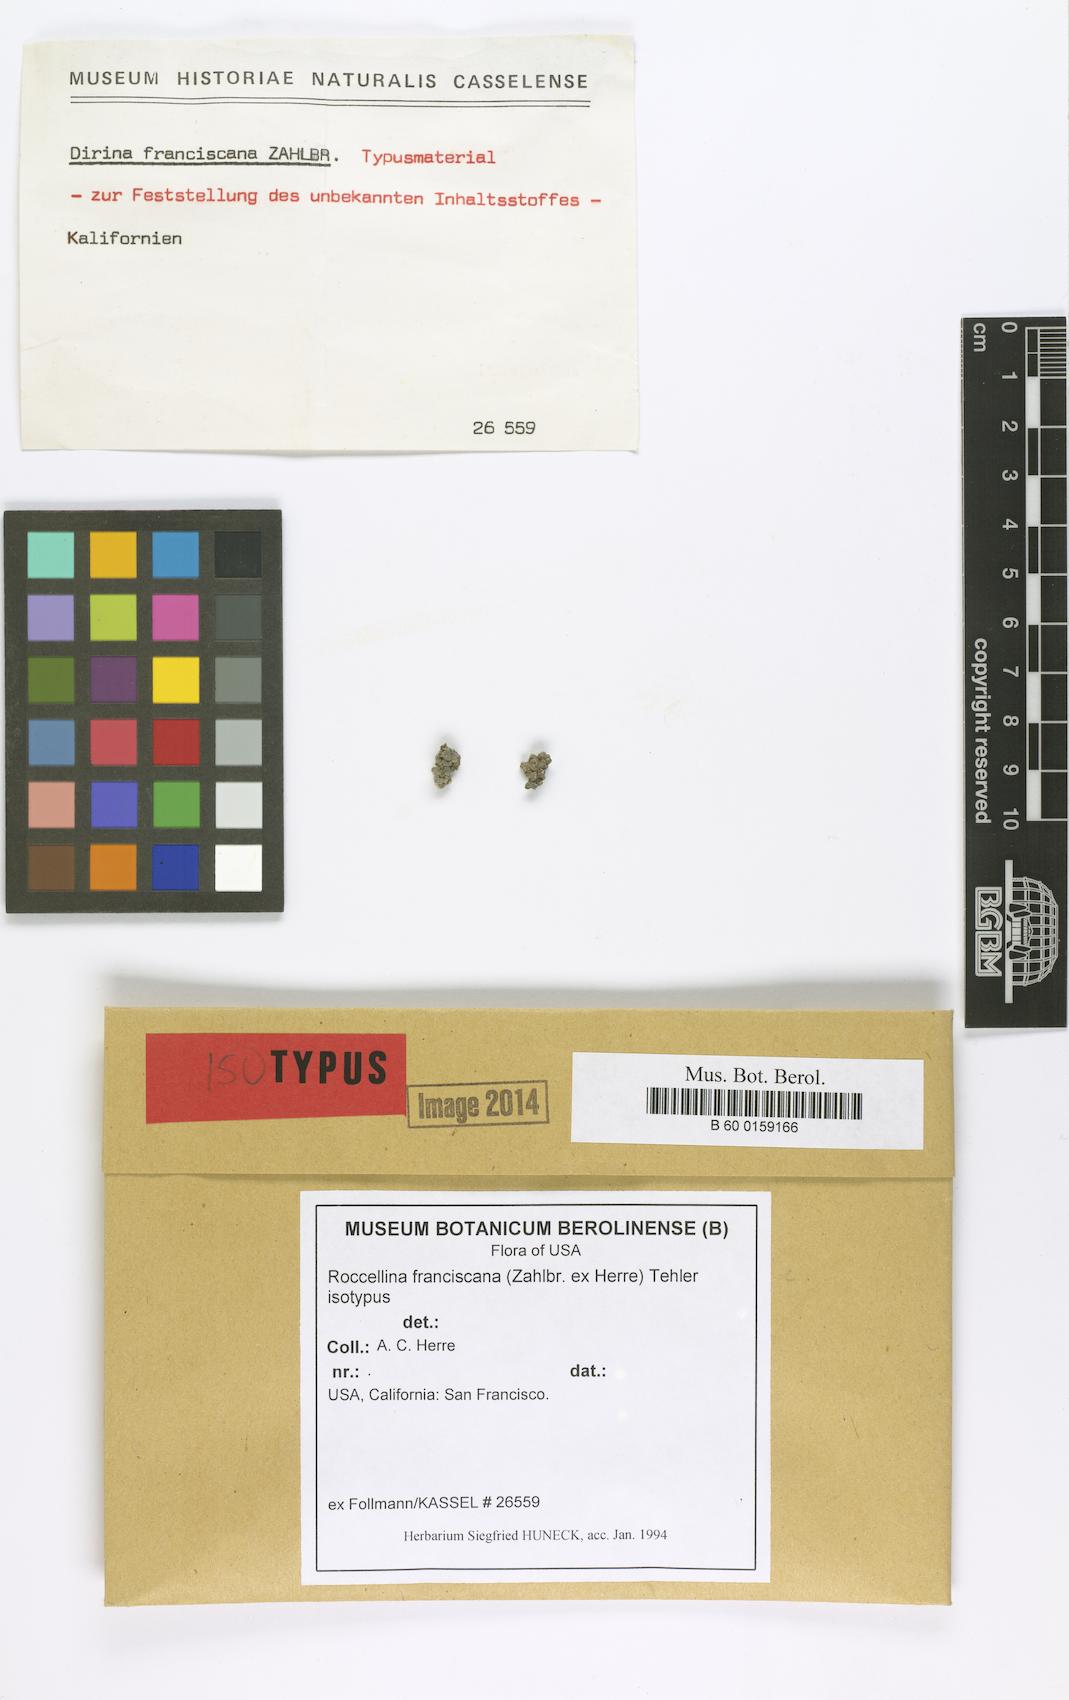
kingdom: Fungi
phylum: Ascomycota
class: Arthoniomycetes
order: Arthoniales
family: Roccellaceae
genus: Dendrographa
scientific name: Dendrographa franciscana
